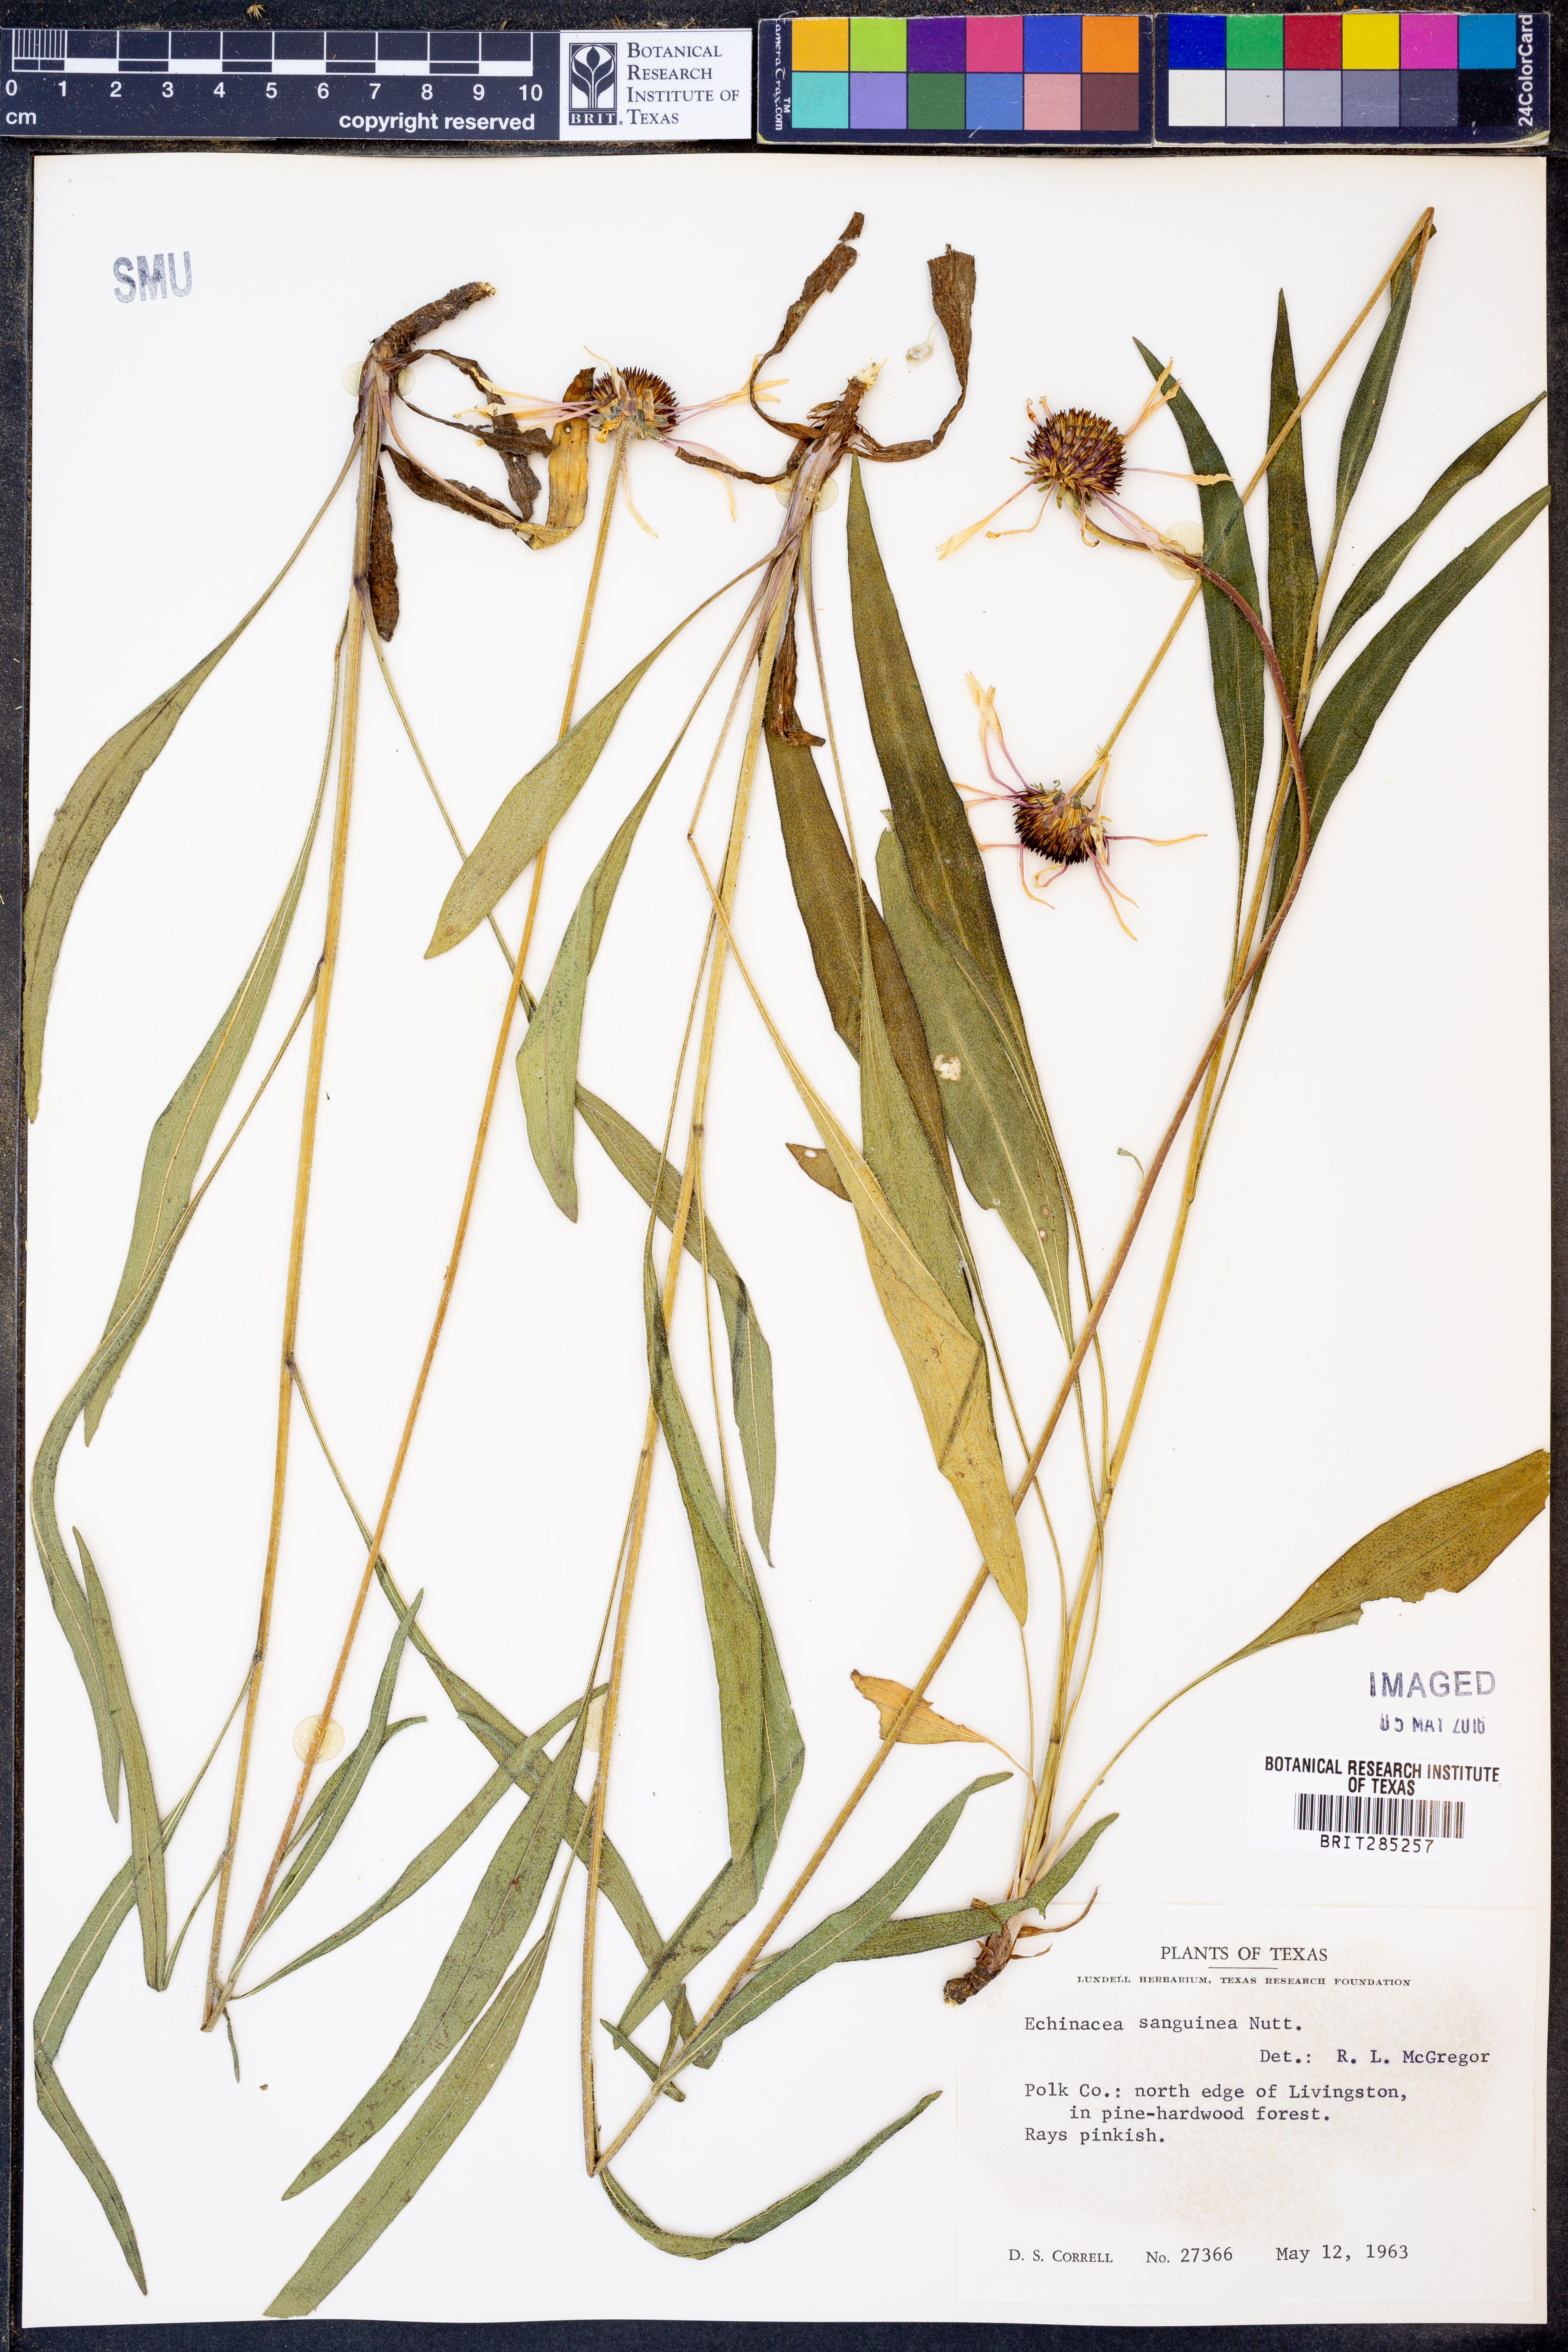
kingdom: Plantae
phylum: Tracheophyta
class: Magnoliopsida
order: Asterales
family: Asteraceae
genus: Echinacea
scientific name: Echinacea sanguinea
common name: Sanguine purple-coneflower
